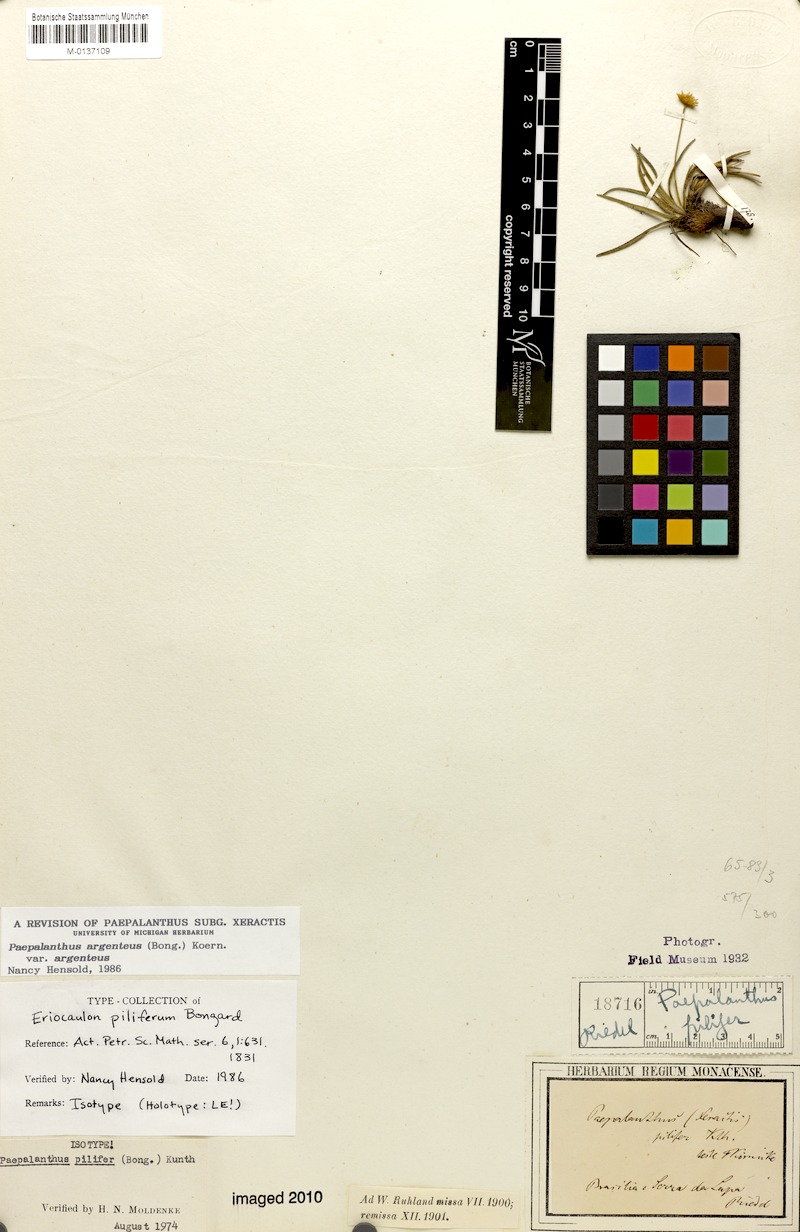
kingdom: Plantae
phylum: Tracheophyta
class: Liliopsida
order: Poales
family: Eriocaulaceae
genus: Paepalanthus
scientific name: Paepalanthus argenteus
